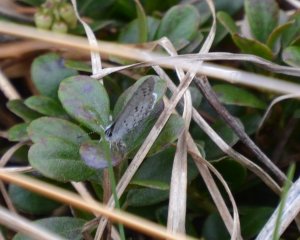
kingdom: Animalia
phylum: Arthropoda
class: Insecta
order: Lepidoptera
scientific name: Lepidoptera
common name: Butterflies
